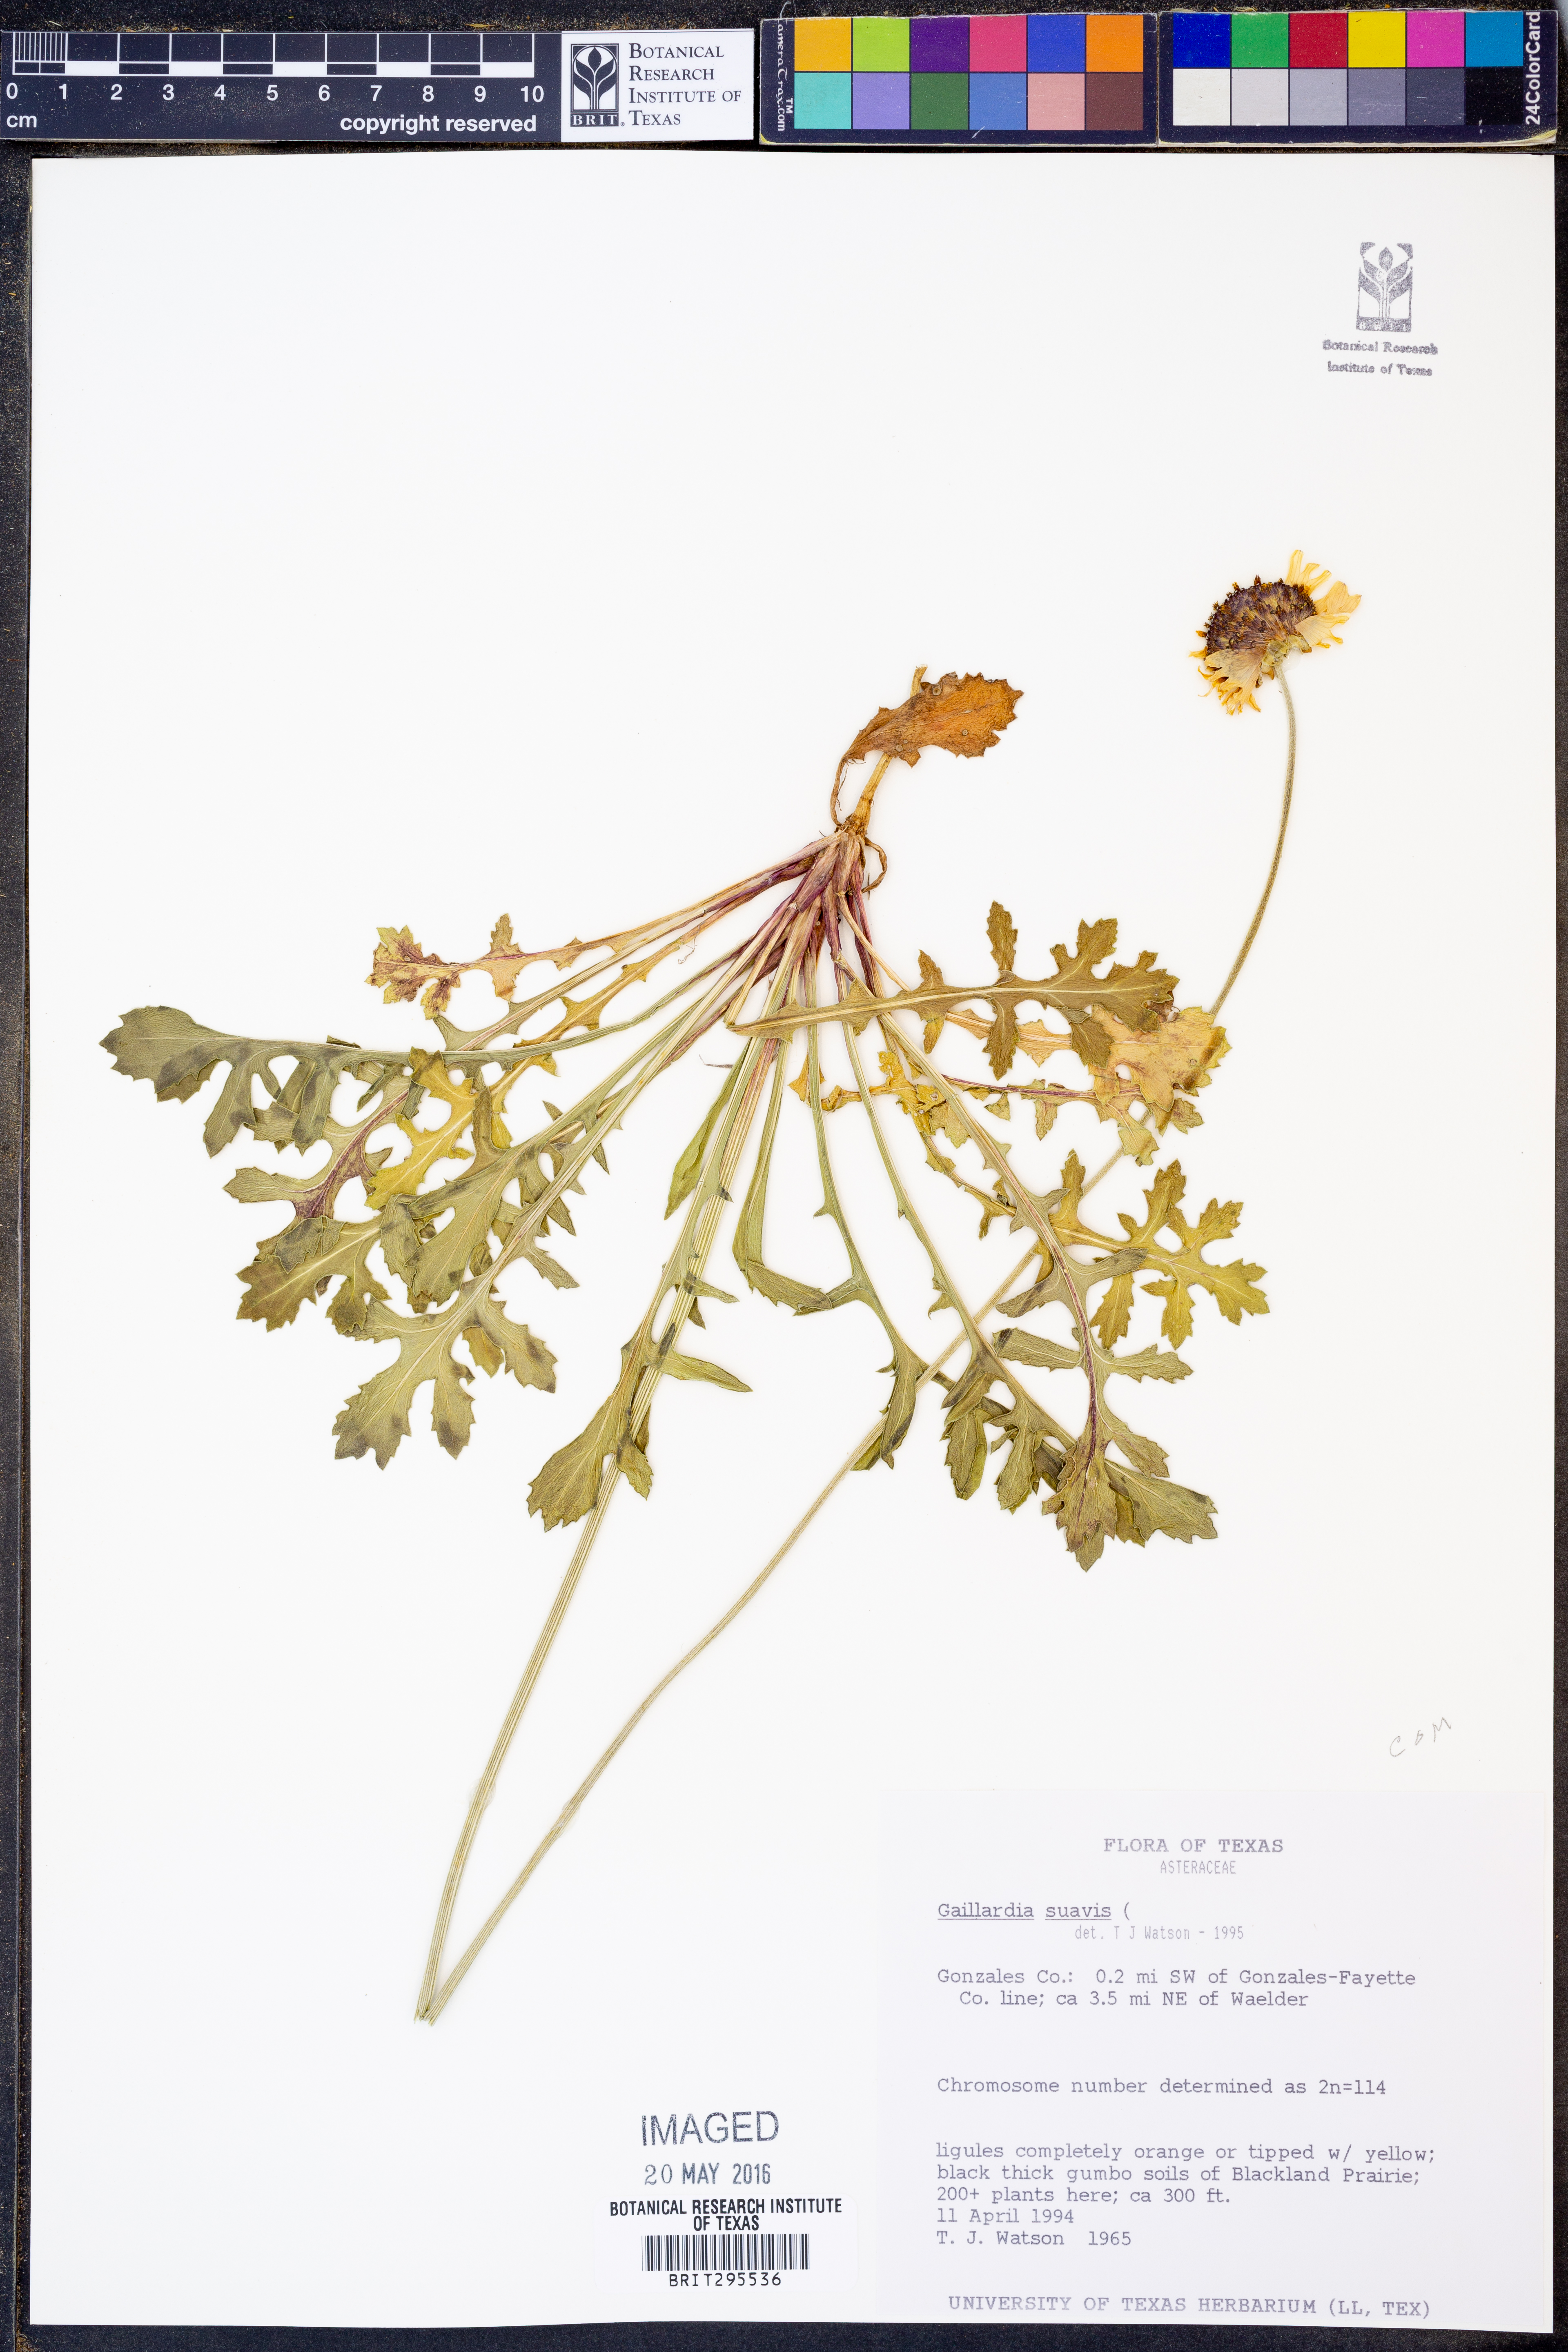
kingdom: Plantae
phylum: Tracheophyta
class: Magnoliopsida
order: Asterales
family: Asteraceae
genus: Gaillardia
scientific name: Gaillardia suavis
